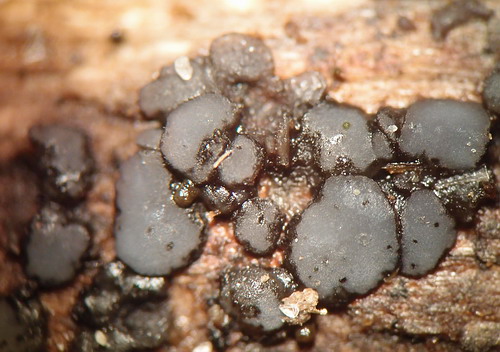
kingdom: Fungi
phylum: Ascomycota
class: Leotiomycetes
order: Helotiales
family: Mollisiaceae
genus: Mollisia
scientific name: Mollisia
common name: gråskive
